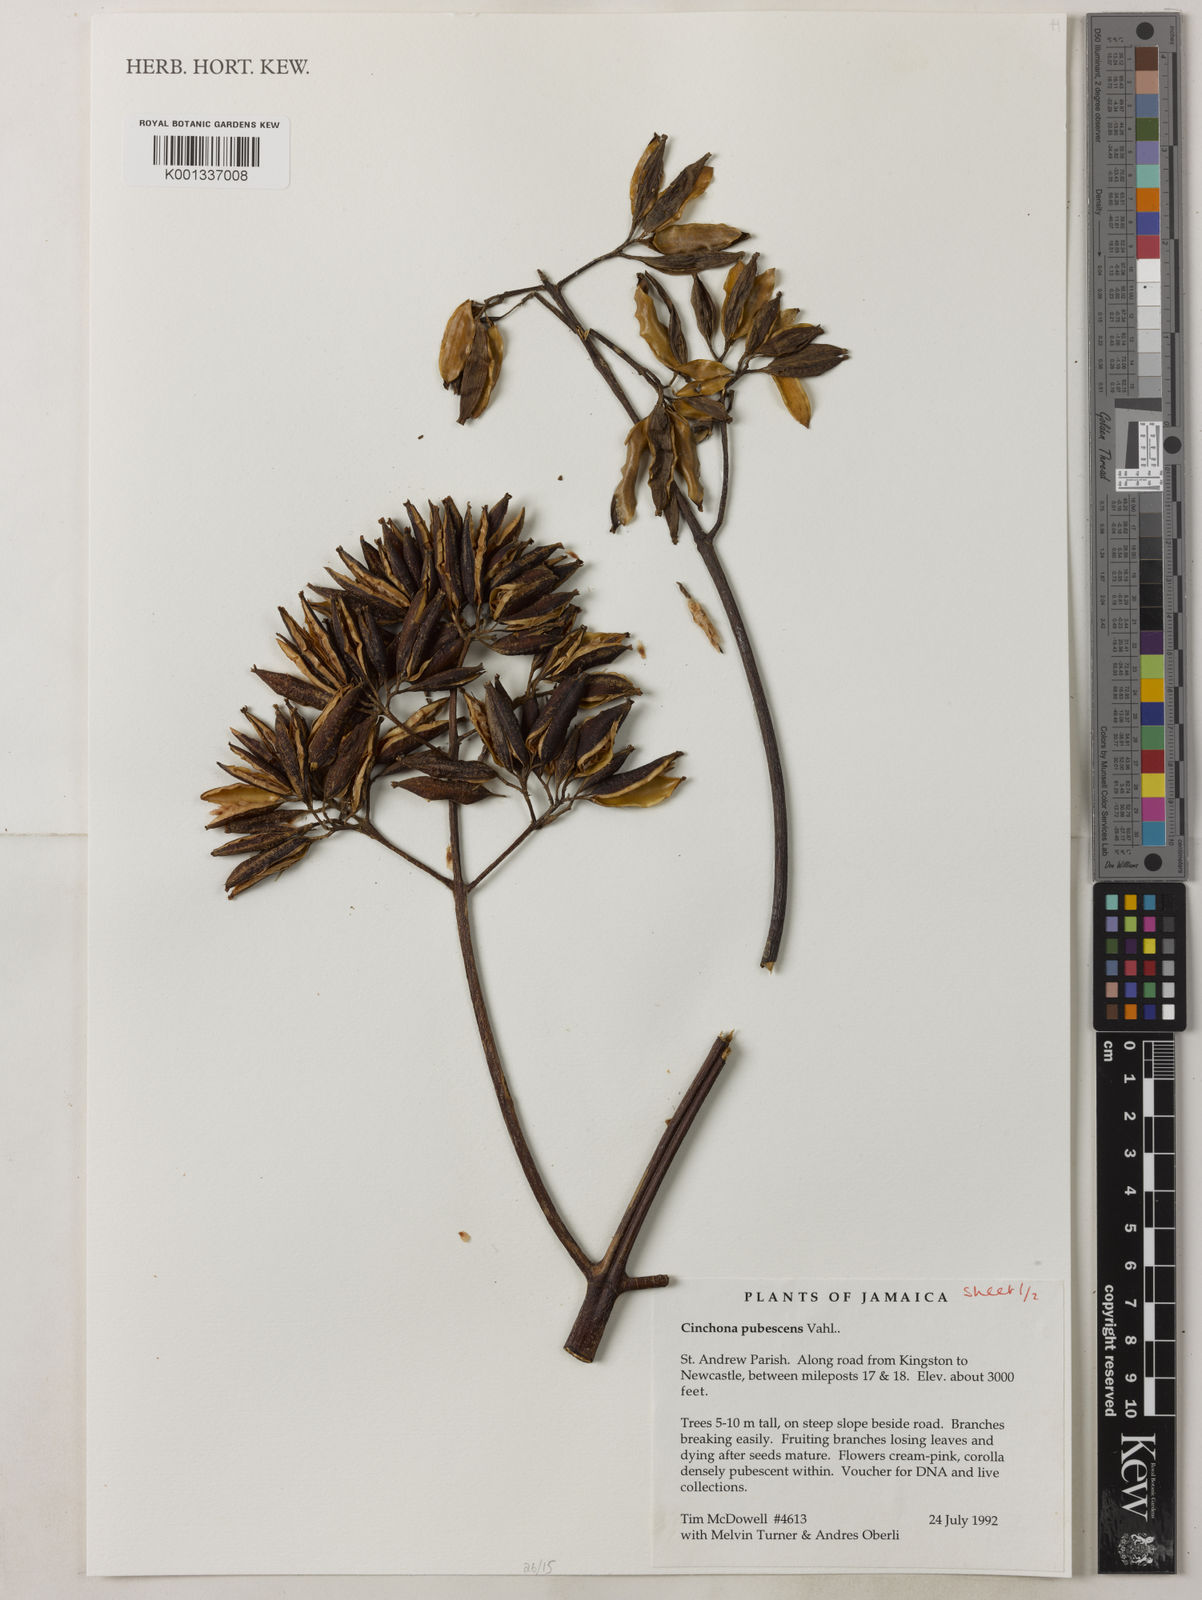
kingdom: Plantae
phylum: Tracheophyta
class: Magnoliopsida
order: Gentianales
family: Rubiaceae
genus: Cinchona
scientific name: Cinchona pubescens
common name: Quinine
